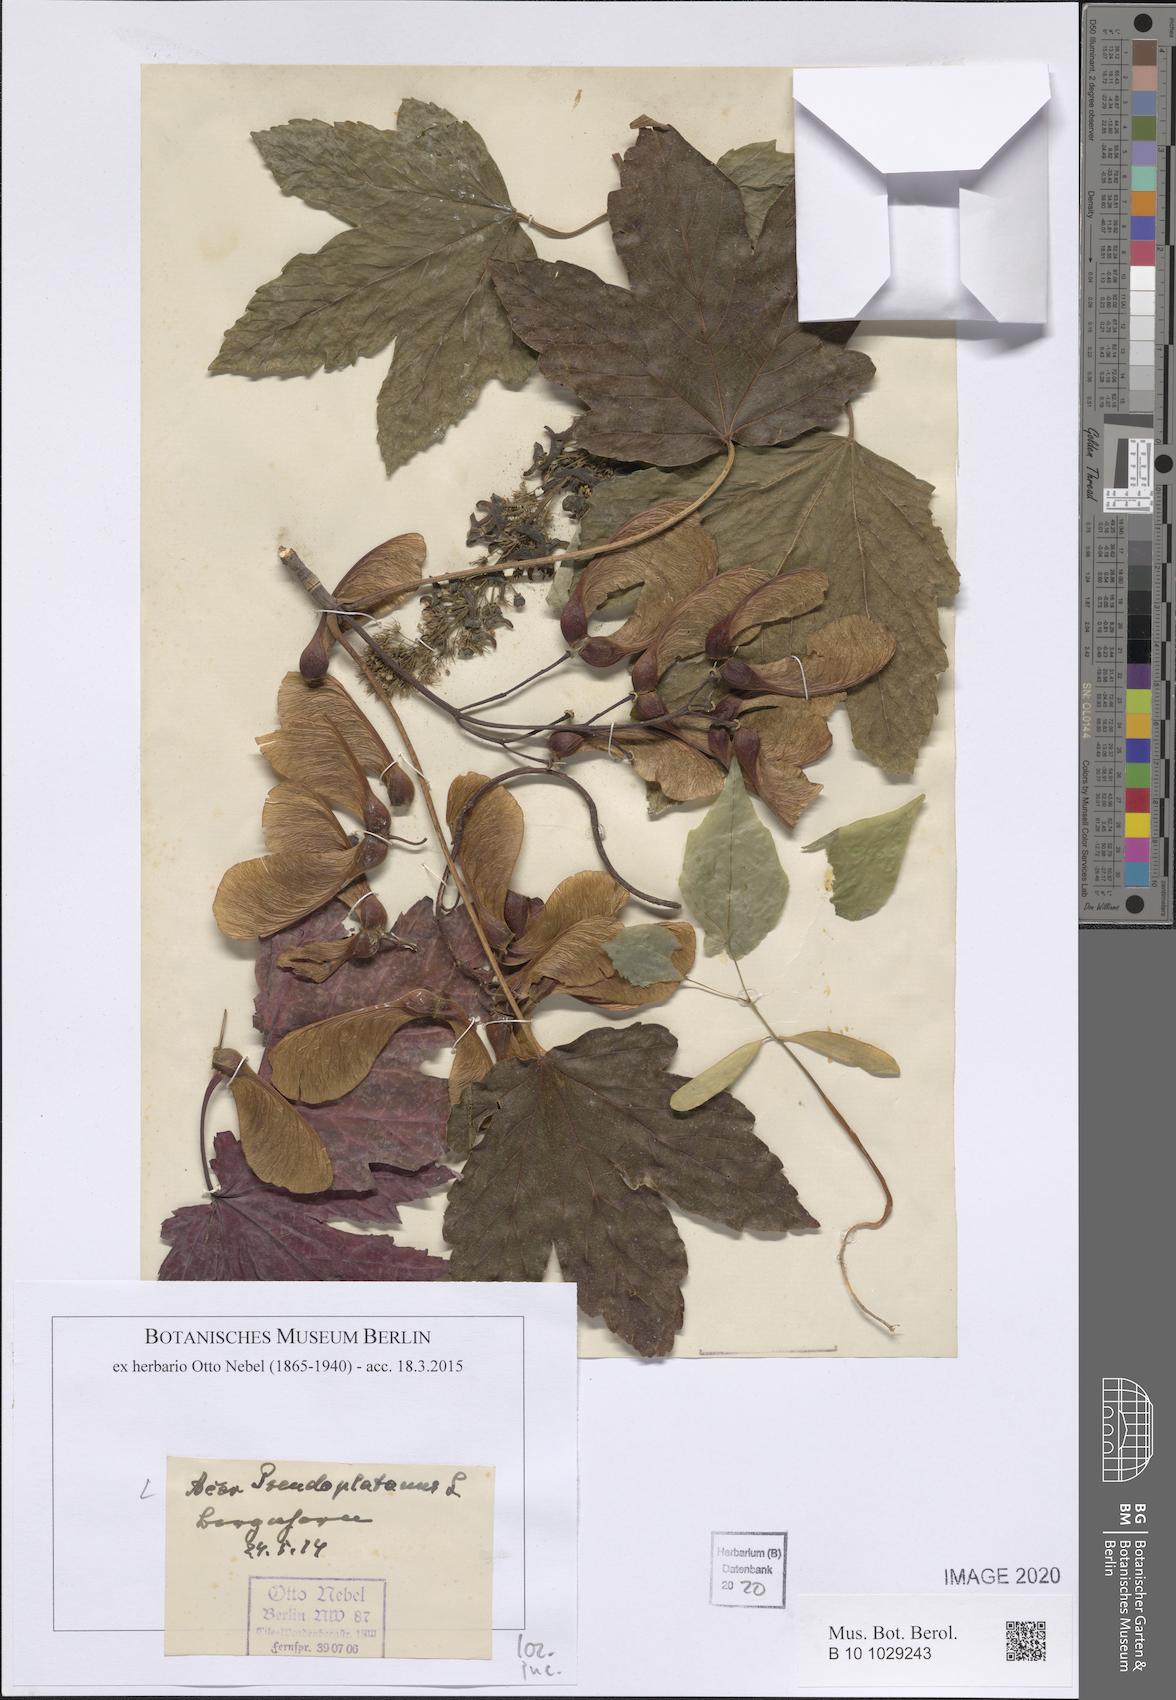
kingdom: Plantae
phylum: Tracheophyta
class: Magnoliopsida
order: Sapindales
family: Sapindaceae
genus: Acer
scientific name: Acer pseudoplatanus
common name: Sycamore
